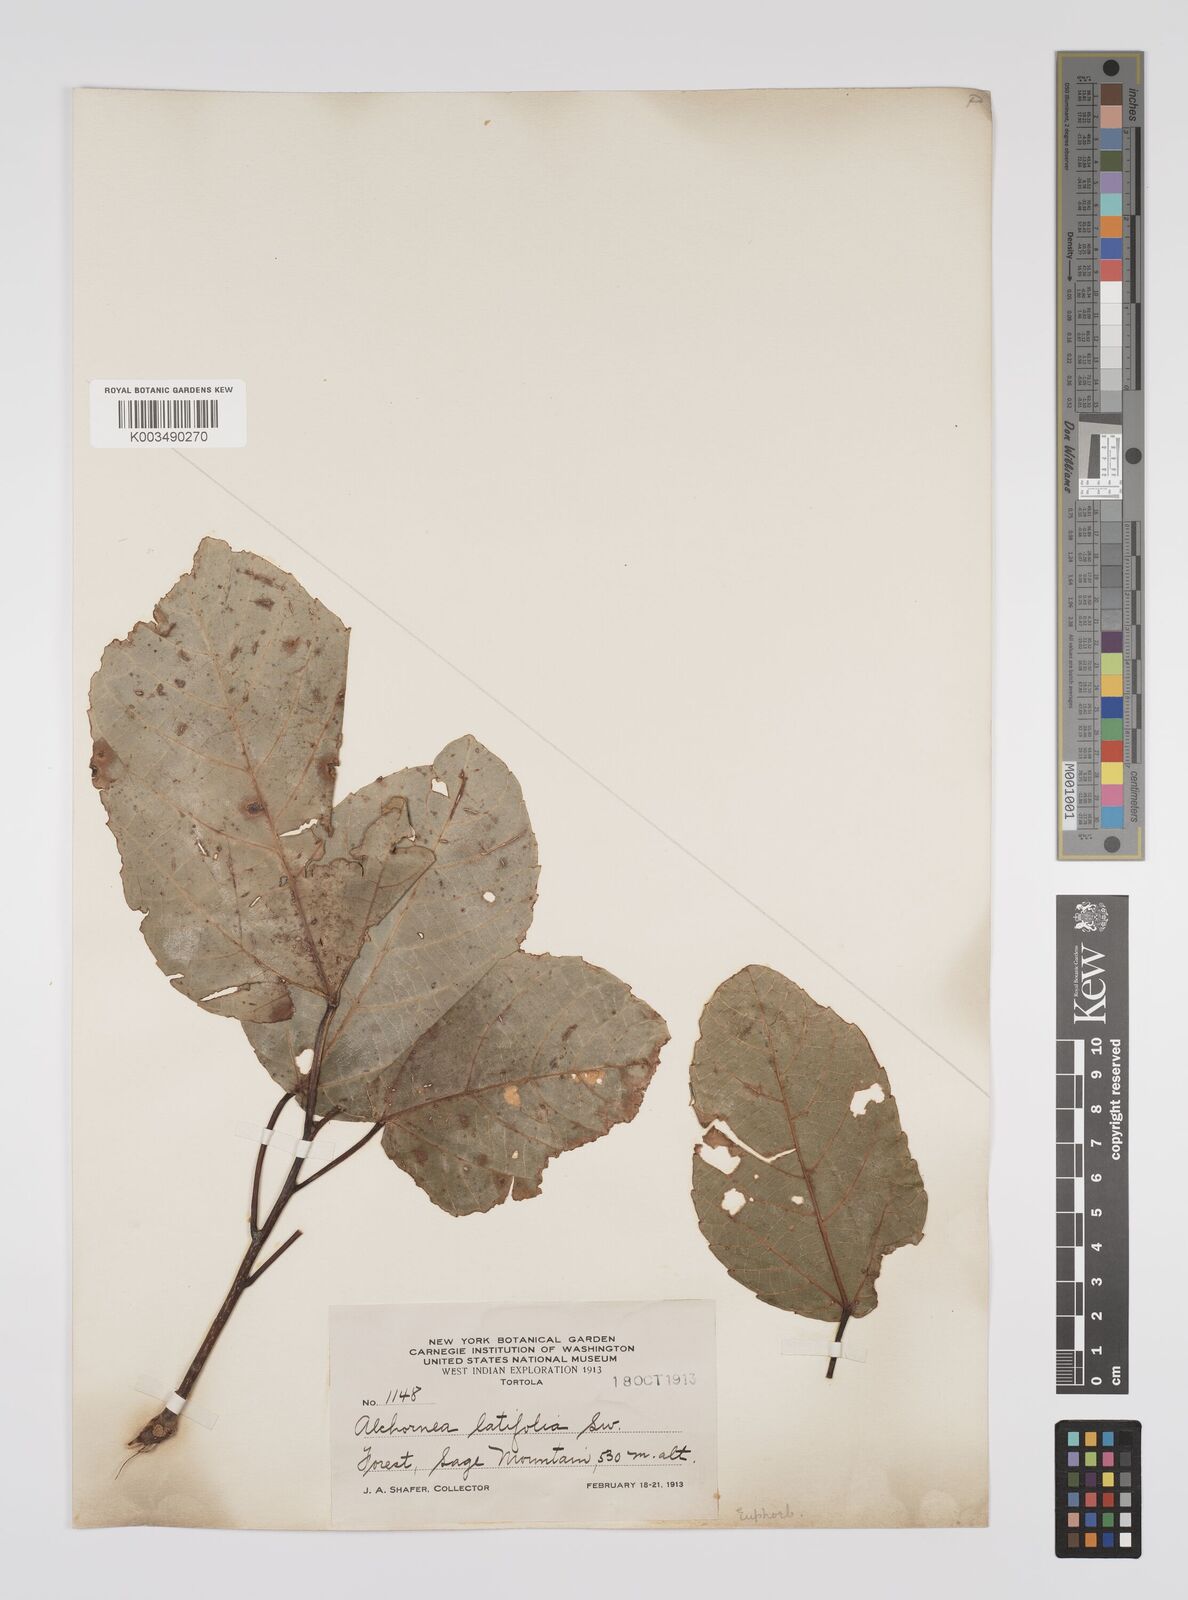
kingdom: Plantae
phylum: Tracheophyta
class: Magnoliopsida
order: Malpighiales
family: Euphorbiaceae
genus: Alchornea
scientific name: Alchornea latifolia
